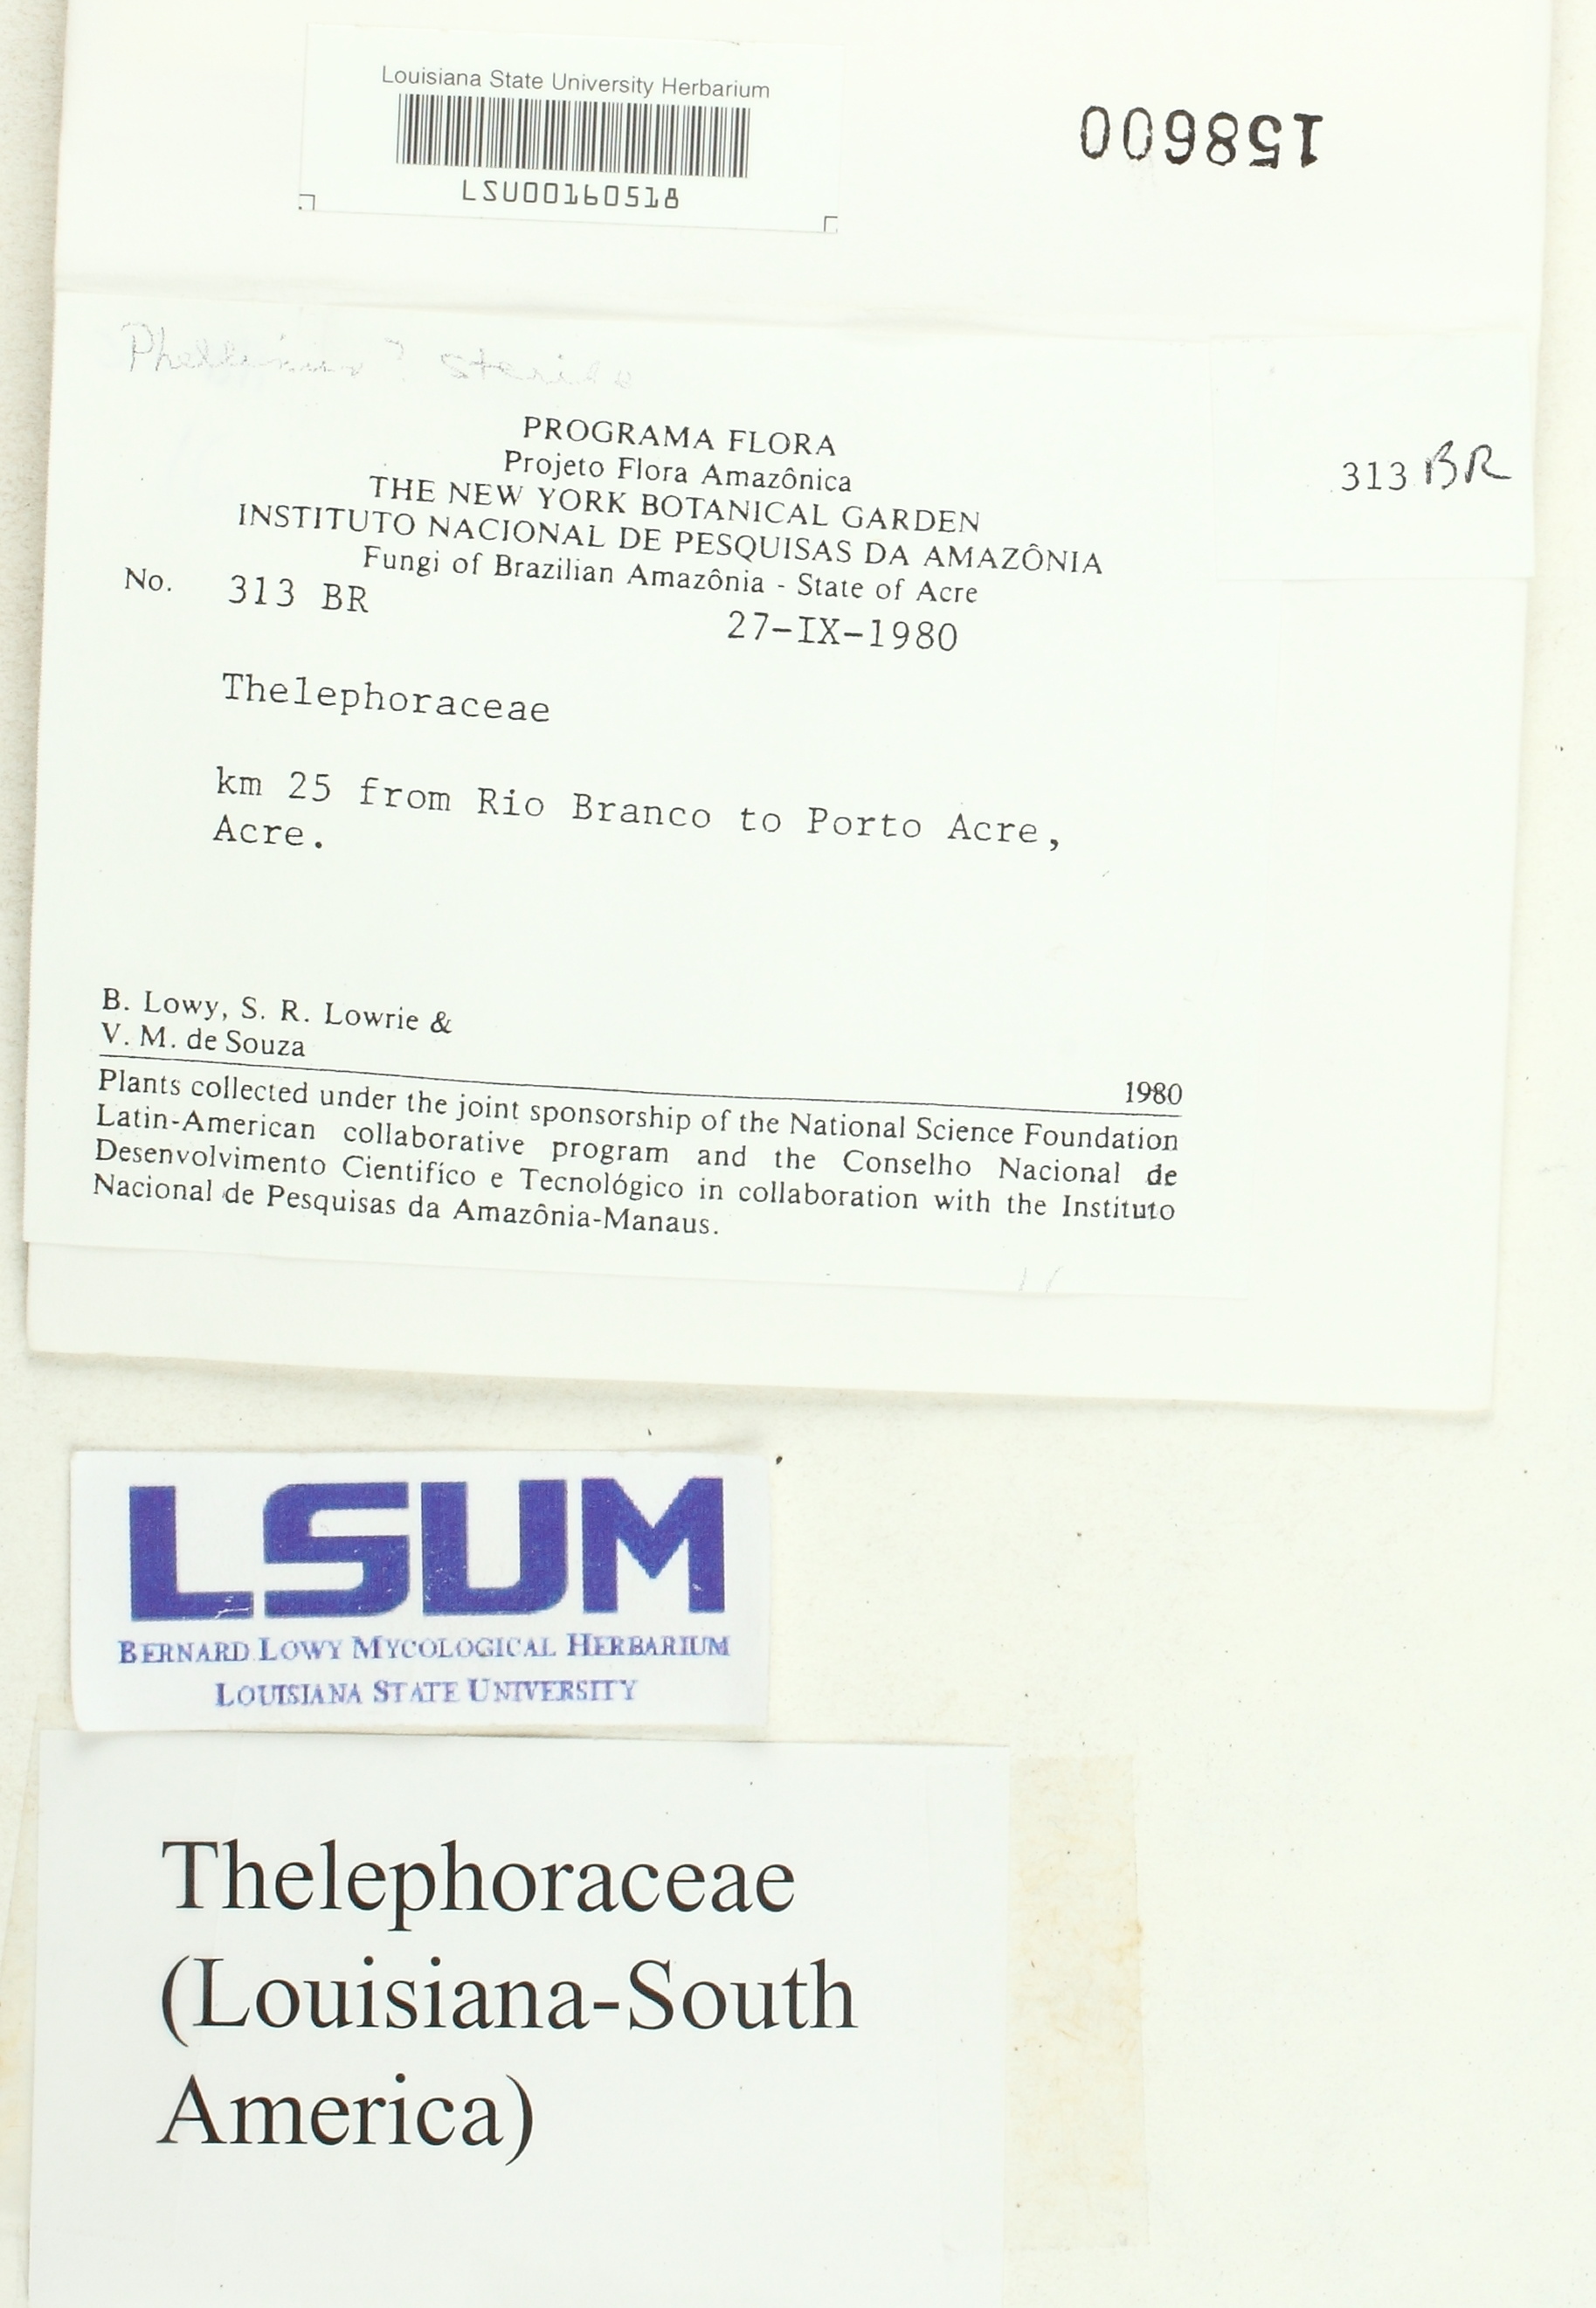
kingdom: Fungi
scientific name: Fungi
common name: Fungi
